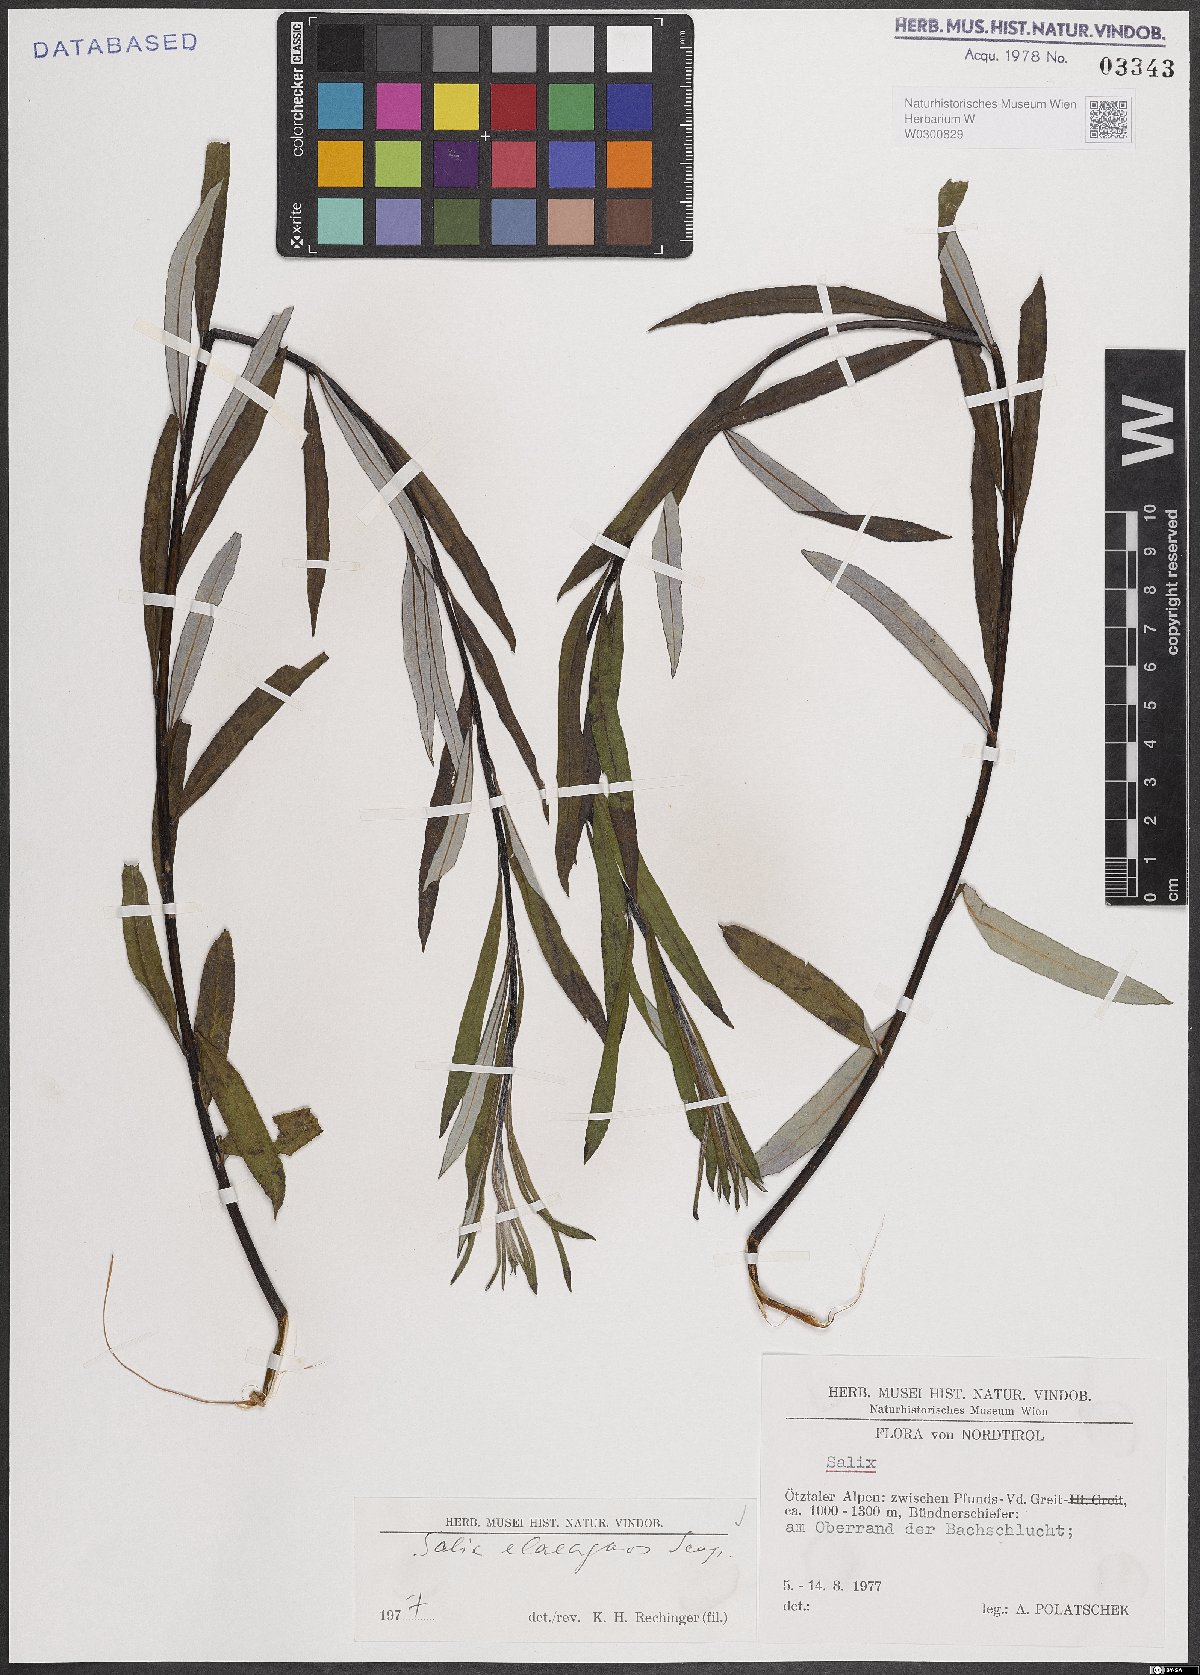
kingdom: Plantae
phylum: Tracheophyta
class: Magnoliopsida
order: Malpighiales
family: Salicaceae
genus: Salix
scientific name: Salix eleagnos
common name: Elaeagnus willow
